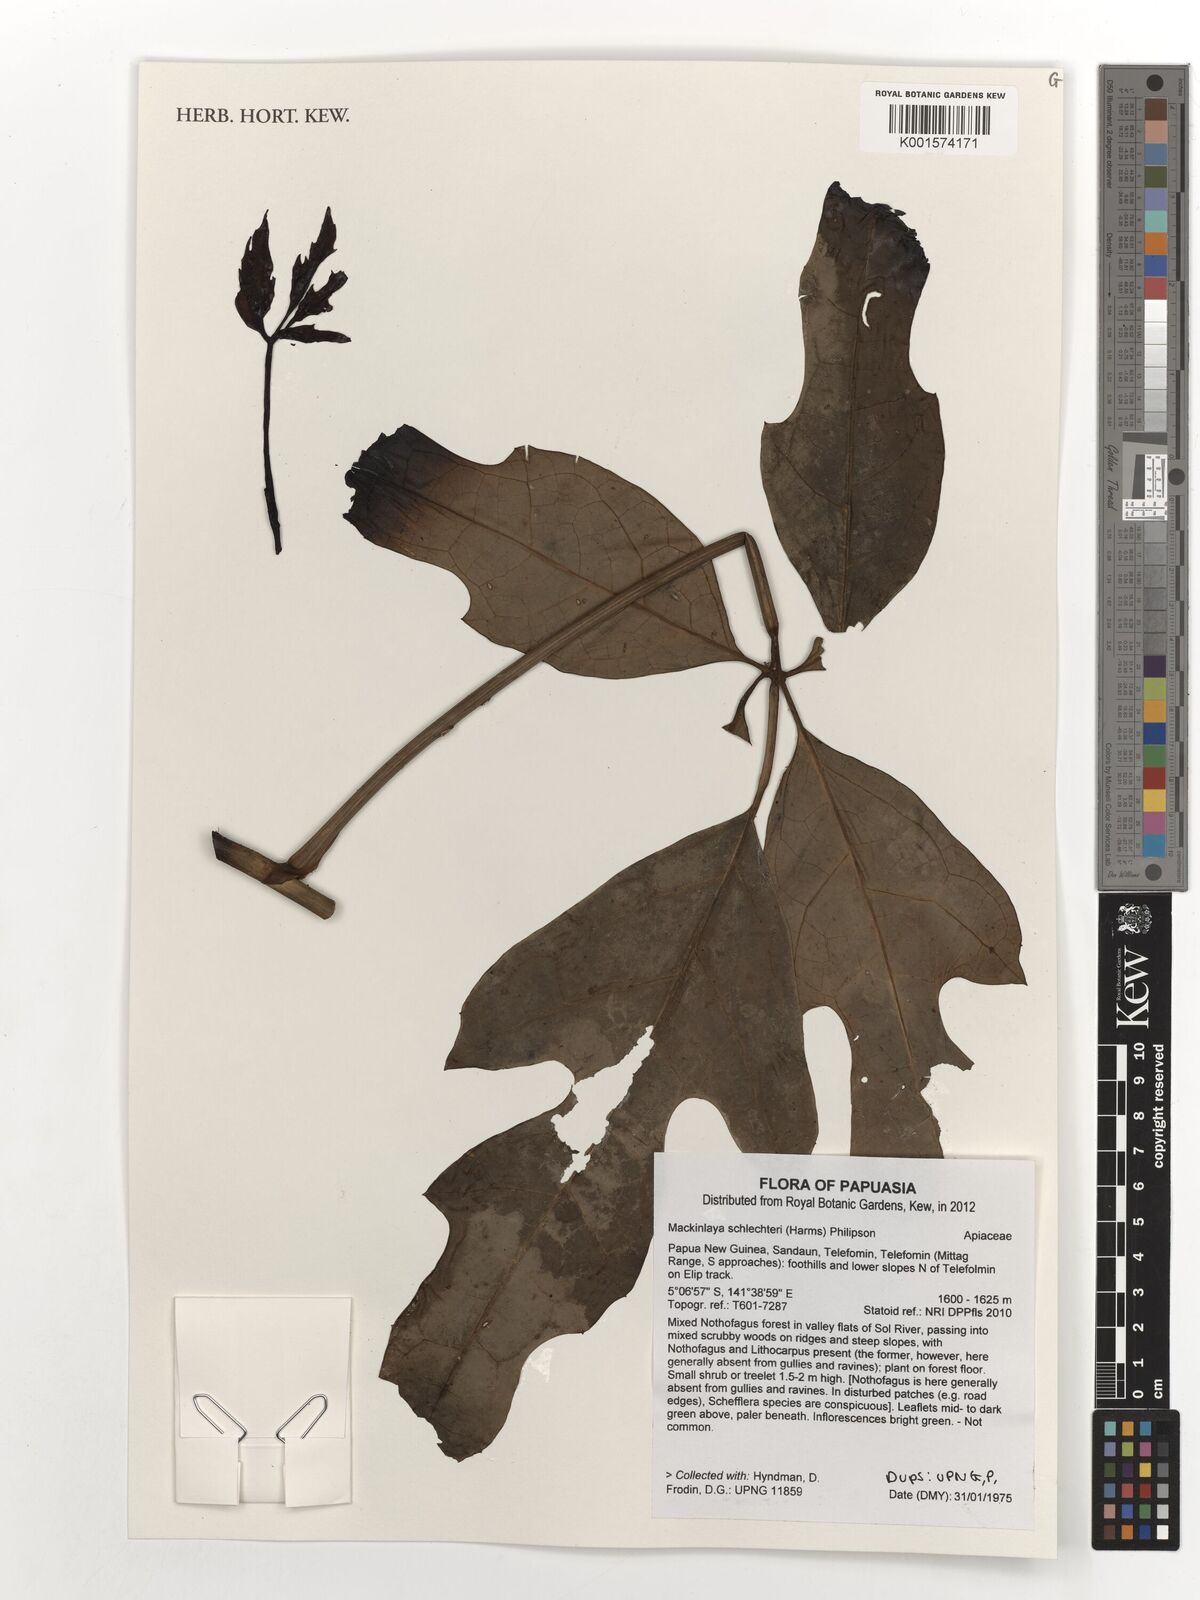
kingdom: Plantae
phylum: Tracheophyta
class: Magnoliopsida
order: Apiales
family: Apiaceae
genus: Mackinlaya
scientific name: Mackinlaya schlechteri
